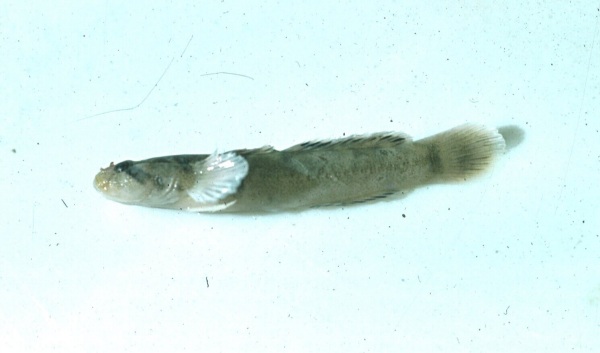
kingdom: Animalia
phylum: Chordata
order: Perciformes
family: Gobiidae
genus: Hetereleotris
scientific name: Hetereleotris zonata
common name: Goggles
